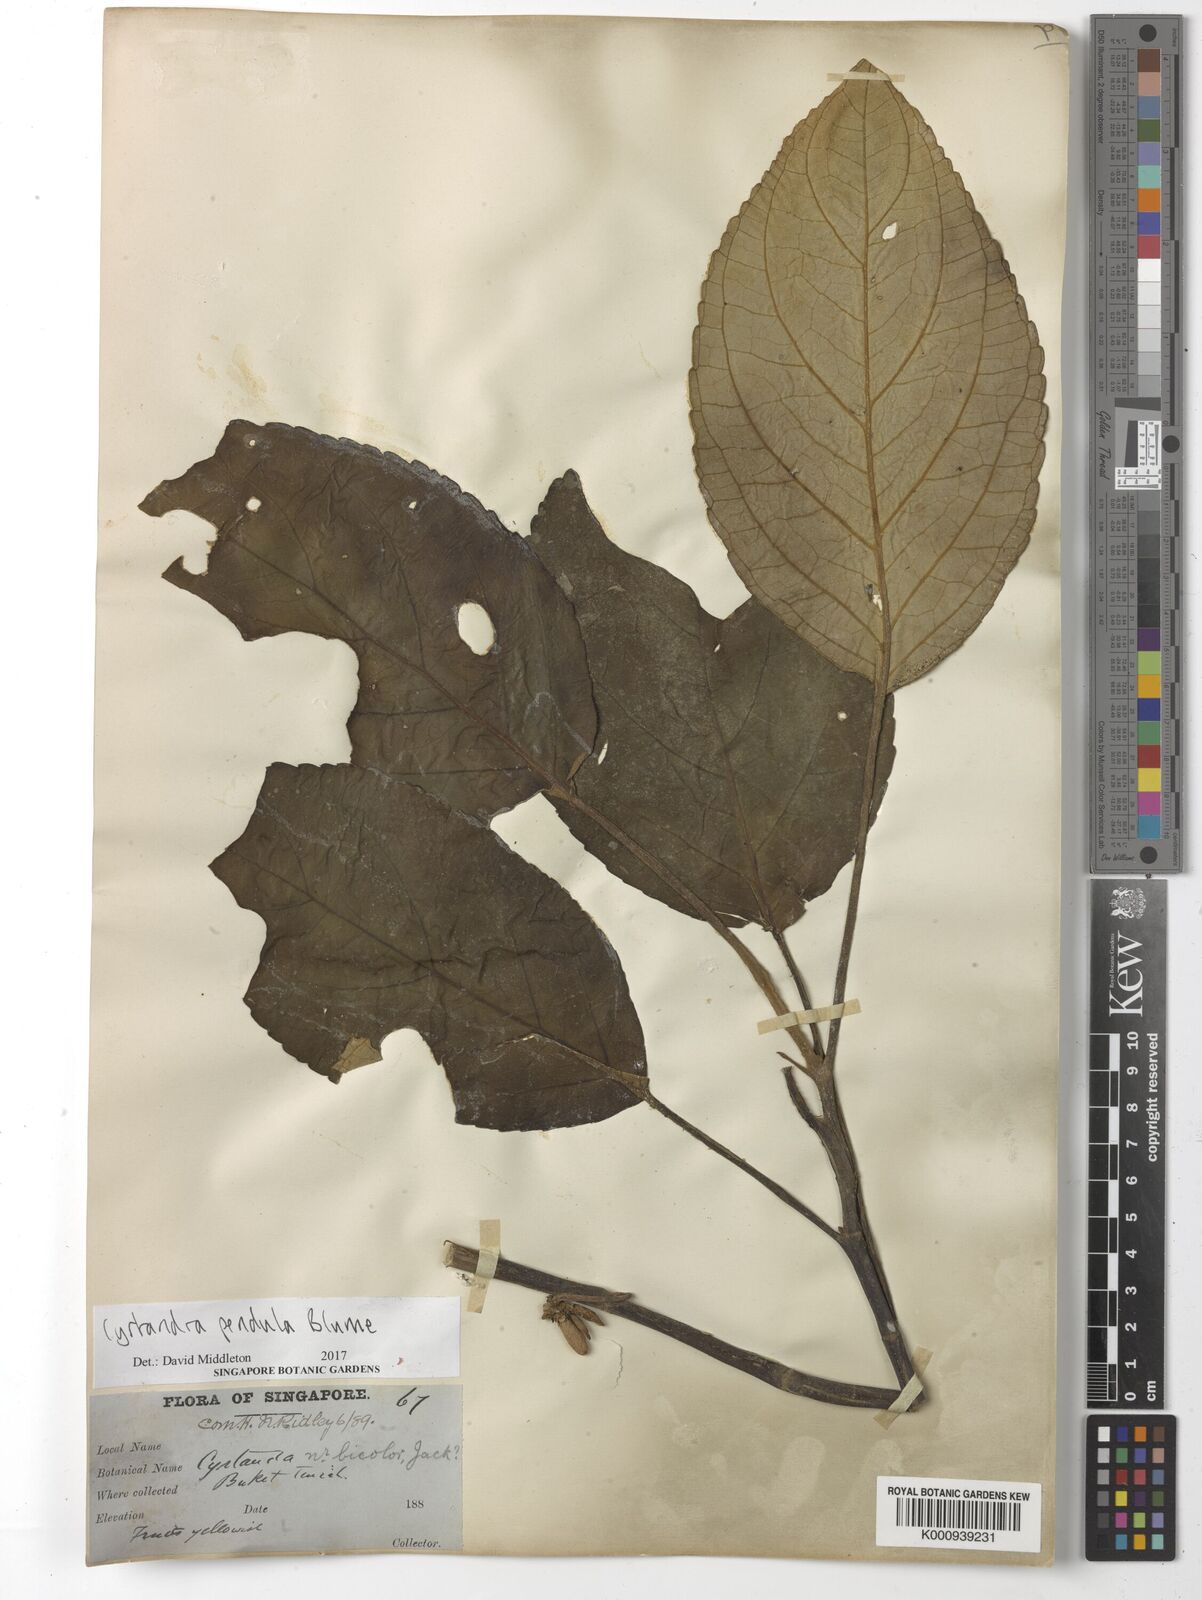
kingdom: Plantae
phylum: Tracheophyta
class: Magnoliopsida
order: Lamiales
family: Gesneriaceae
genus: Cyrtandra
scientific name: Cyrtandra pendula
